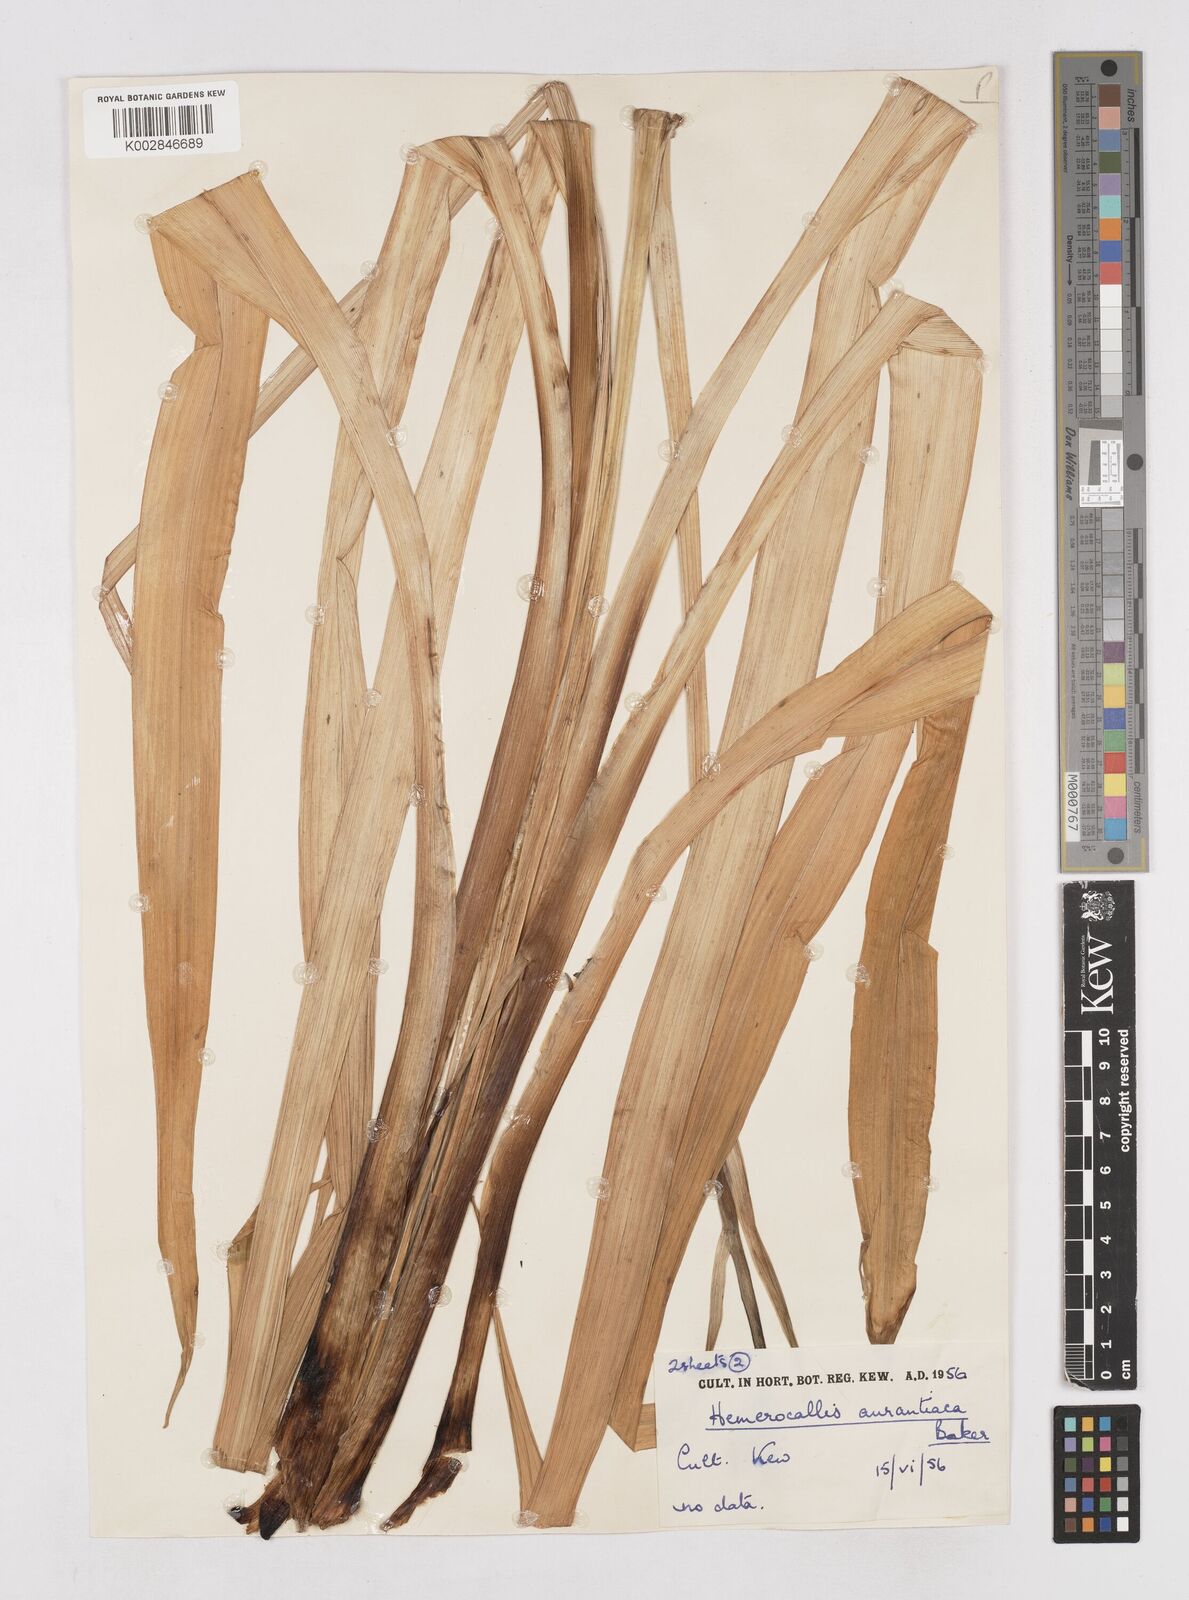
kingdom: Plantae
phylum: Tracheophyta
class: Liliopsida
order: Asparagales
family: Asphodelaceae
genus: Hemerocallis
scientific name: Hemerocallis fulva
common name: Orange day-lily
